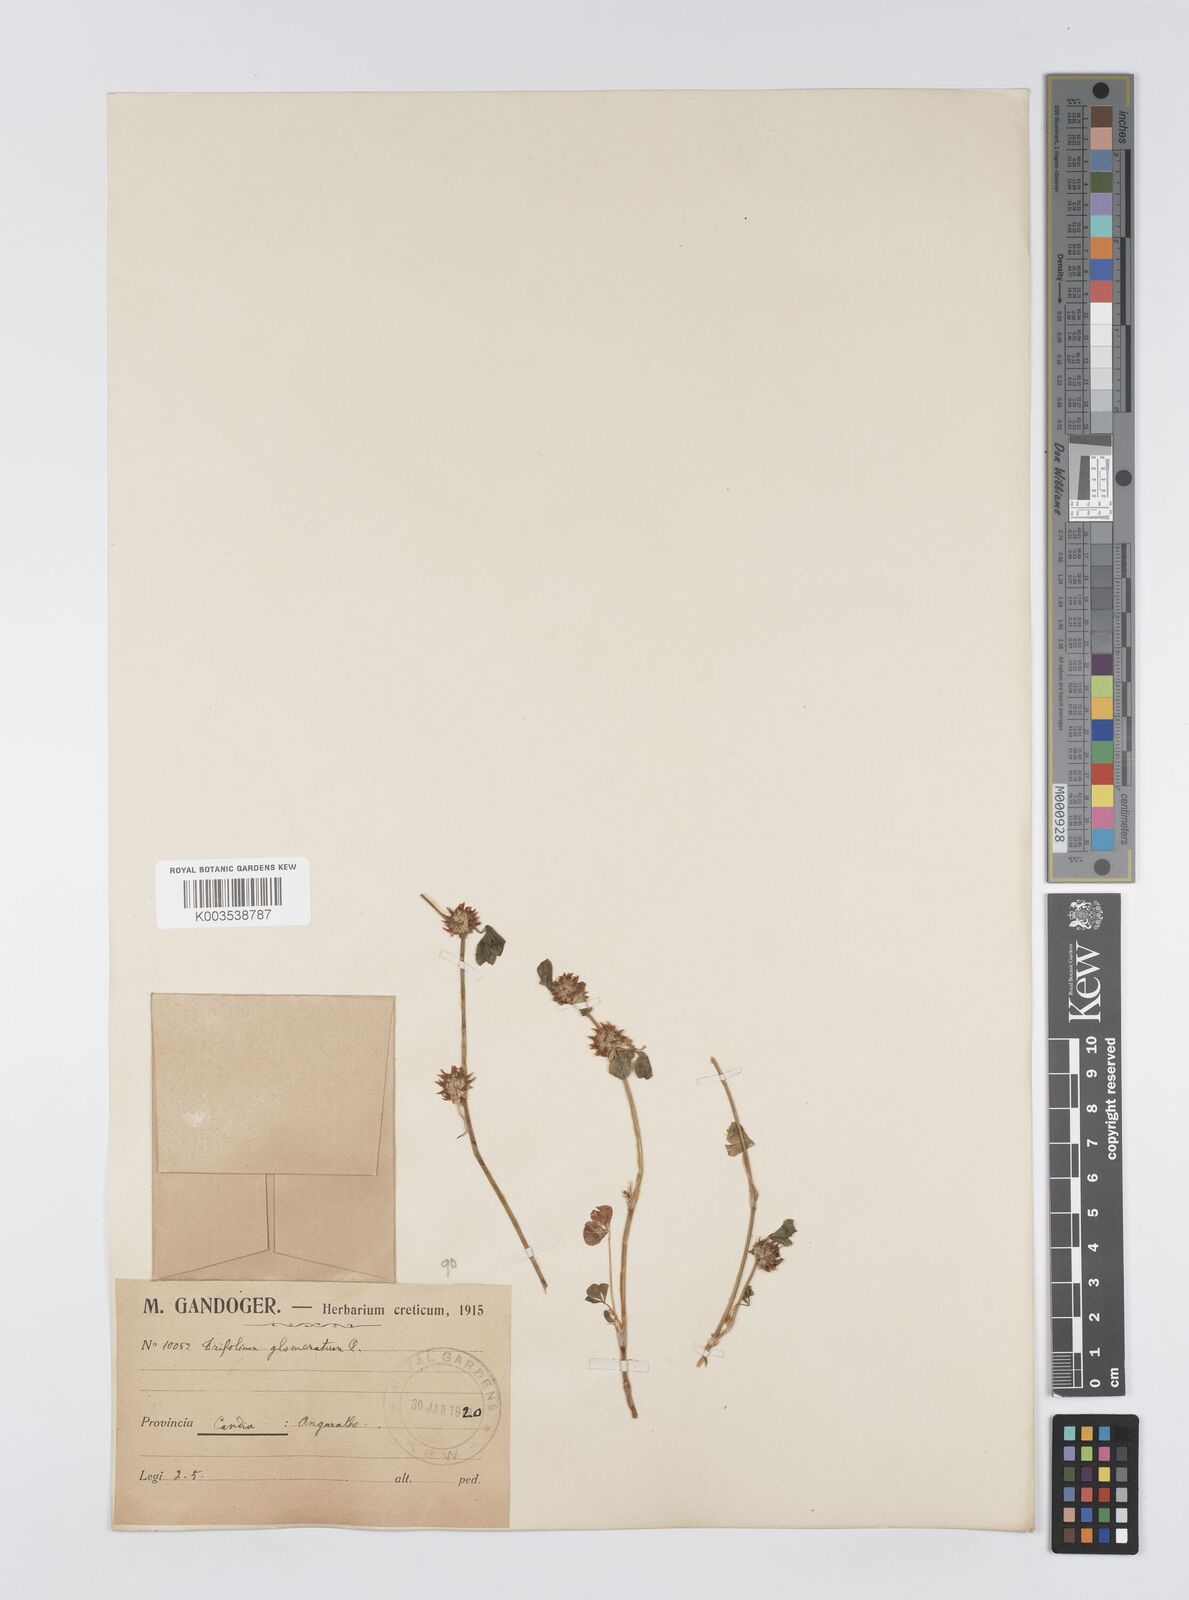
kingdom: Plantae
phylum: Tracheophyta
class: Magnoliopsida
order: Fabales
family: Fabaceae
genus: Trifolium
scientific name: Trifolium glomeratum
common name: Clustered clover
